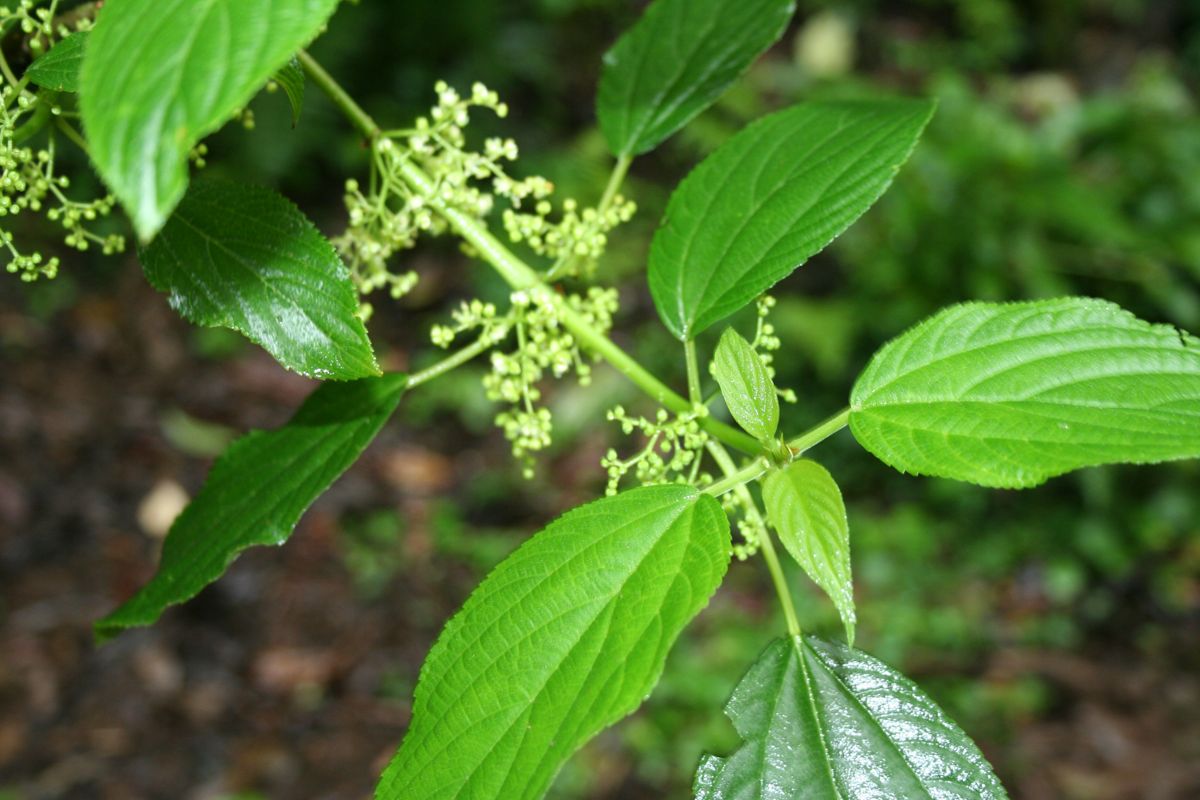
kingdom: Plantae
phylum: Tracheophyta
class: Magnoliopsida
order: Rosales
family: Cannabaceae
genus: Lozanella
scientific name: Lozanella enantiophylla
